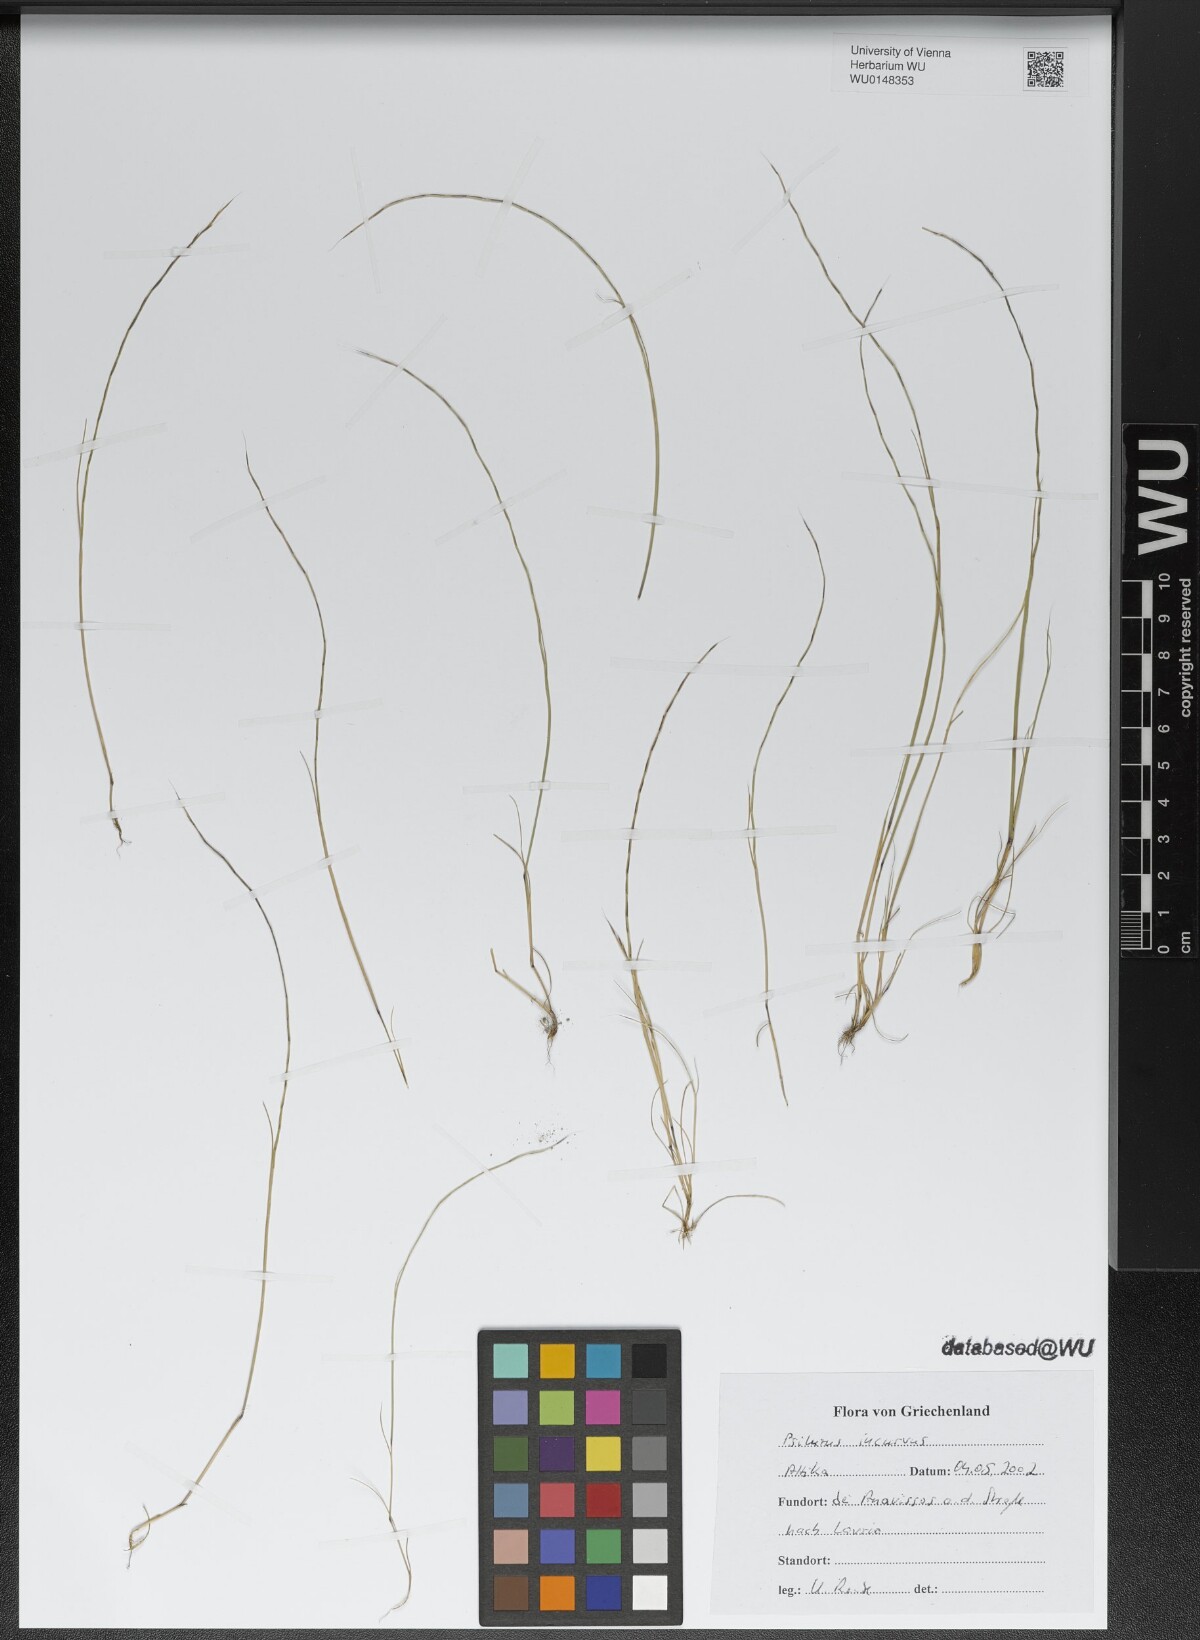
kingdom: Plantae
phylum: Tracheophyta
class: Liliopsida
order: Poales
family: Poaceae
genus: Festuca
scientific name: Festuca incurva
